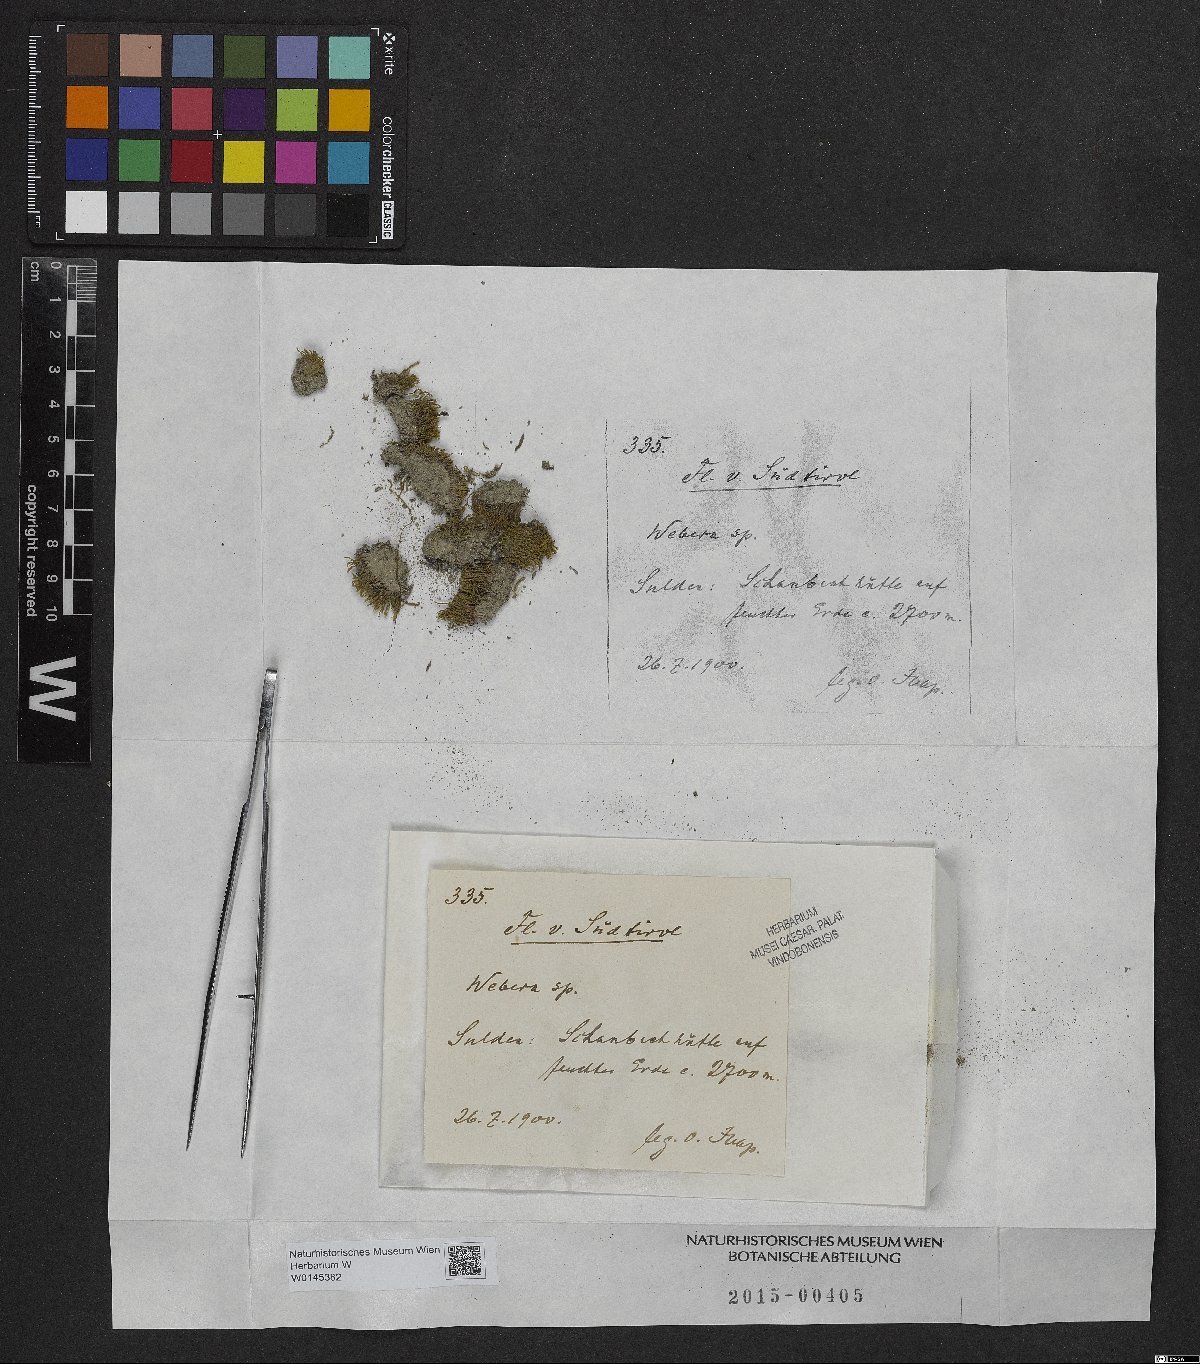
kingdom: Plantae
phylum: Tracheophyta
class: Magnoliopsida
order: Gentianales
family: Rubiaceae
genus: Webera
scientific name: Webera
